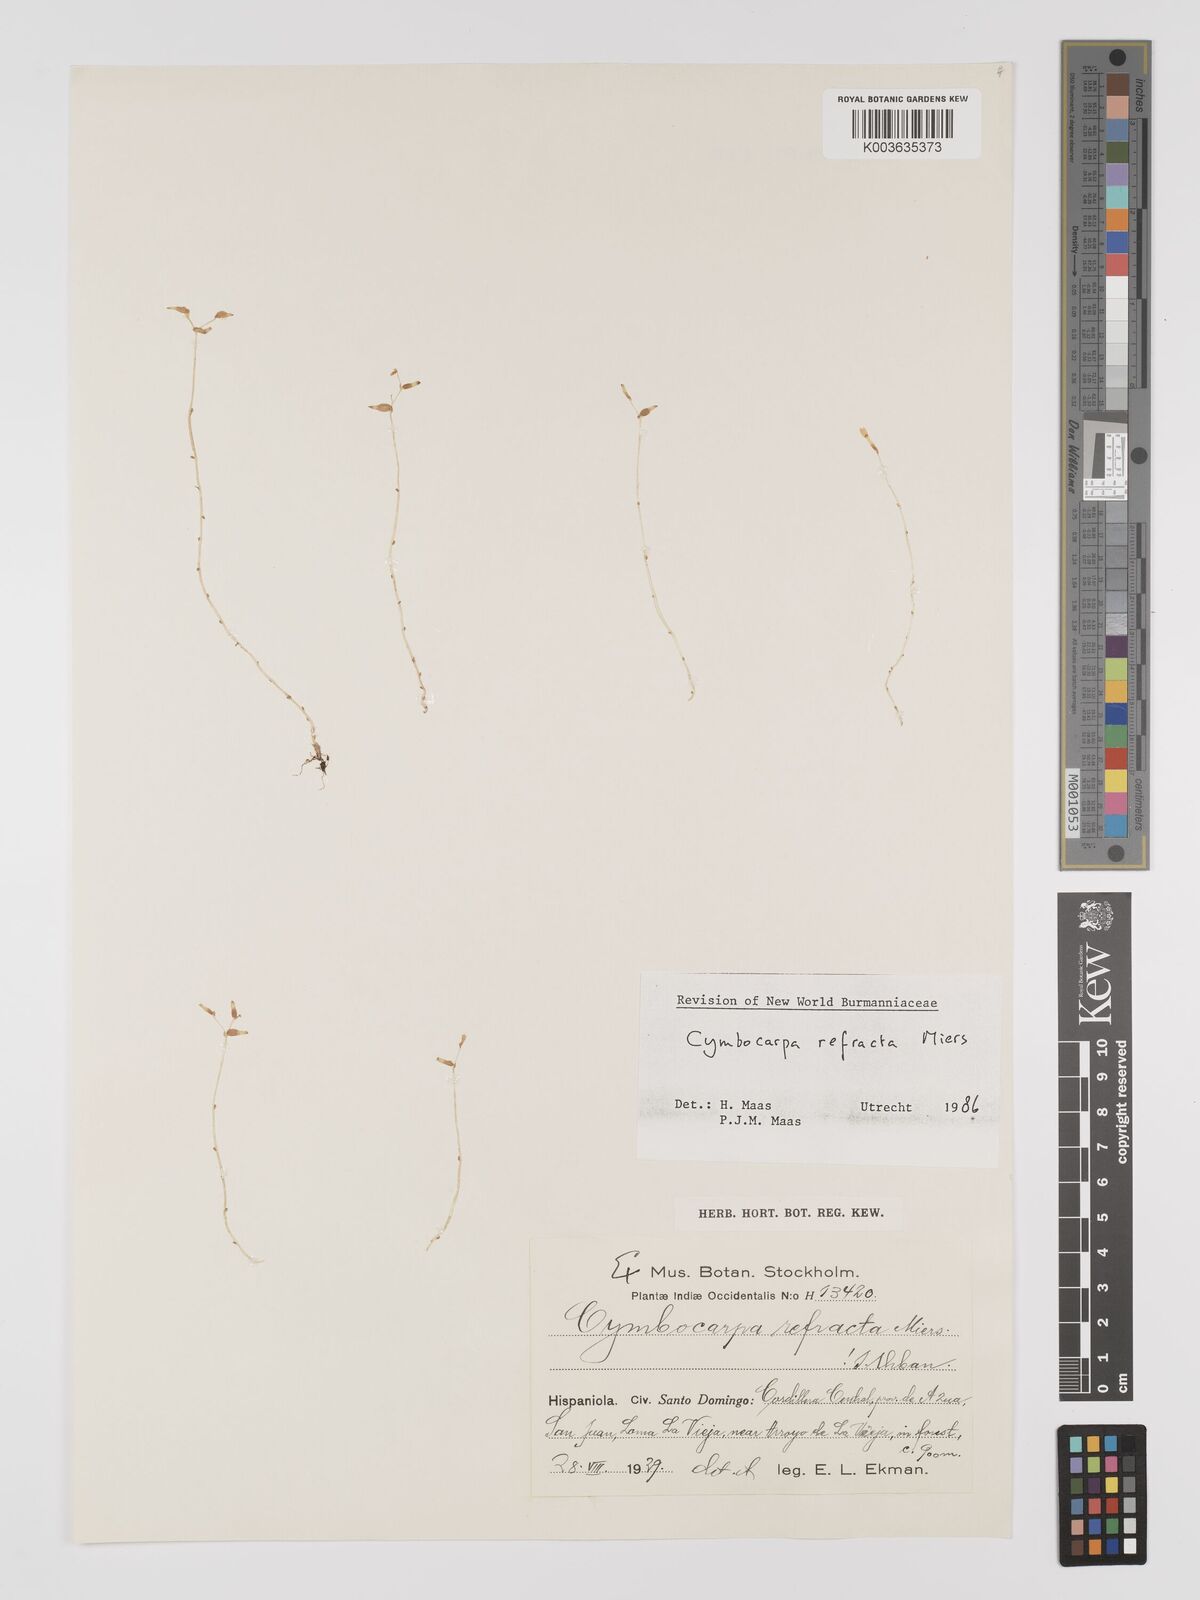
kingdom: Plantae
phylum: Tracheophyta
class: Liliopsida
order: Dioscoreales
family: Burmanniaceae
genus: Gymnosiphon
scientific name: Gymnosiphon refractus
